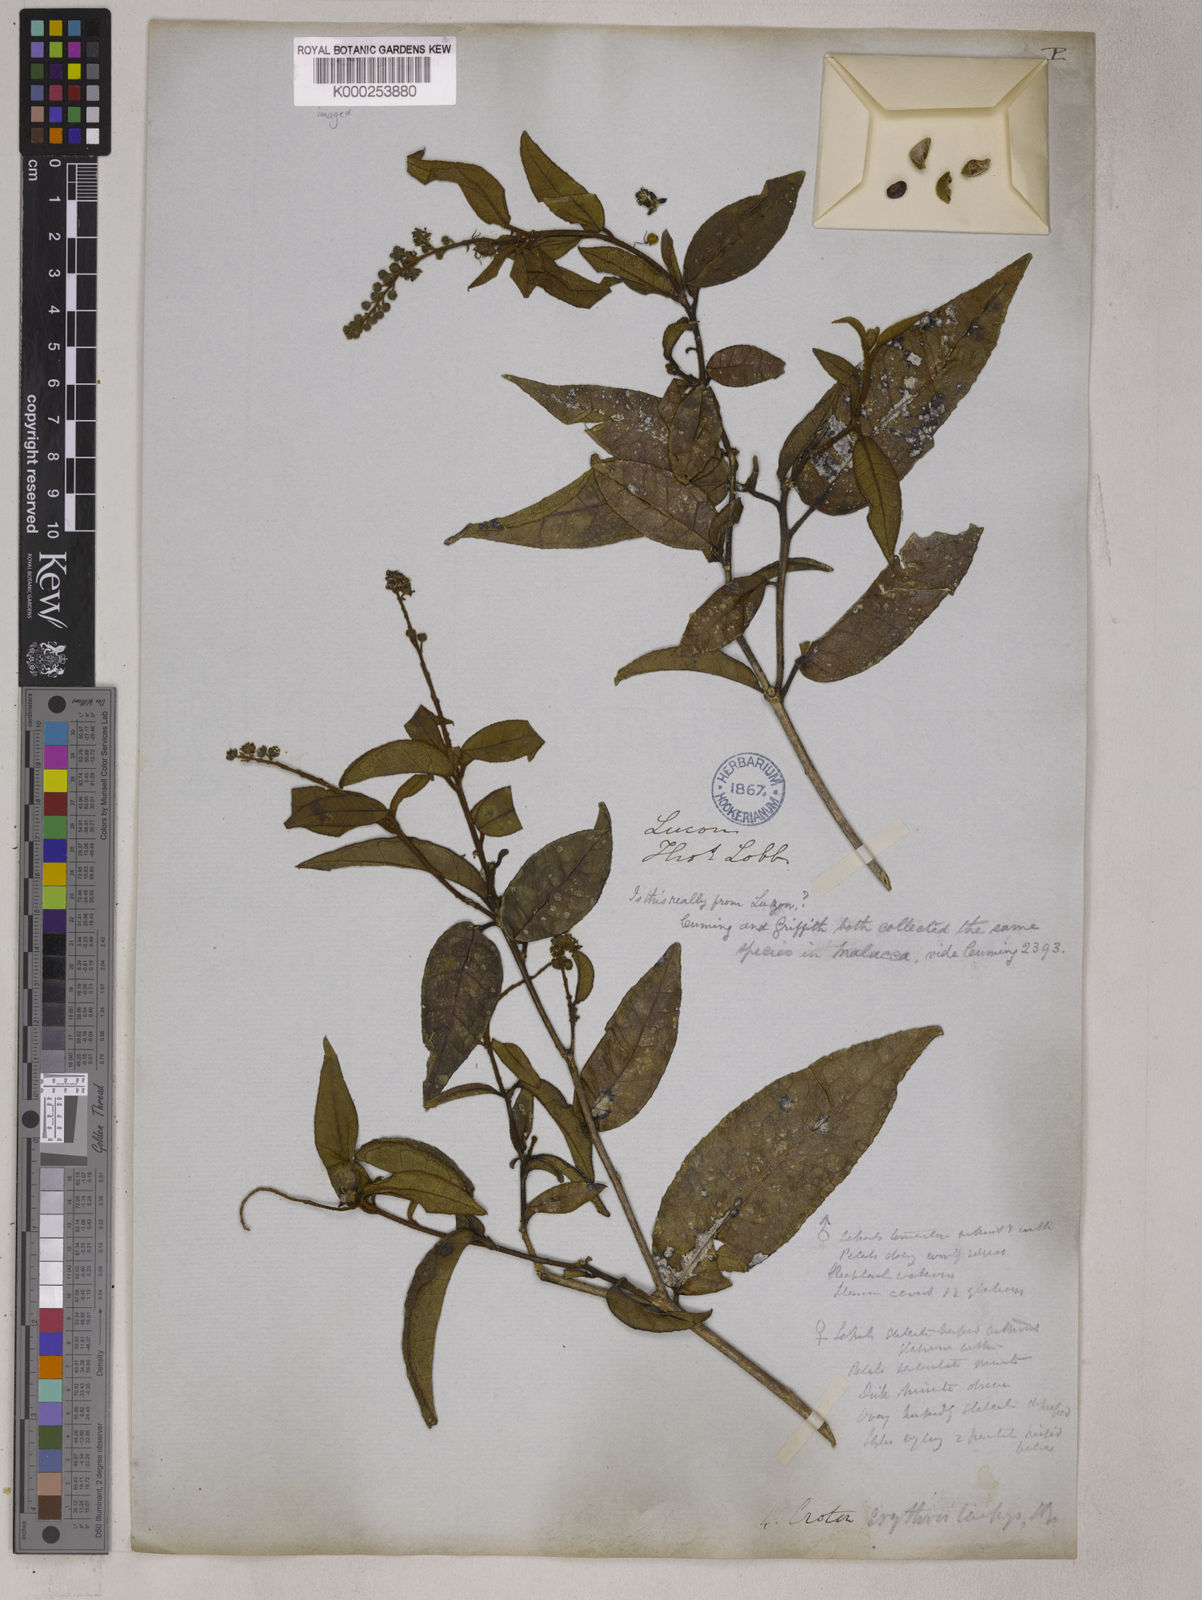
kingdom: Plantae
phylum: Tracheophyta
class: Magnoliopsida
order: Malpighiales
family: Euphorbiaceae
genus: Croton
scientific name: Croton erythrostachys
